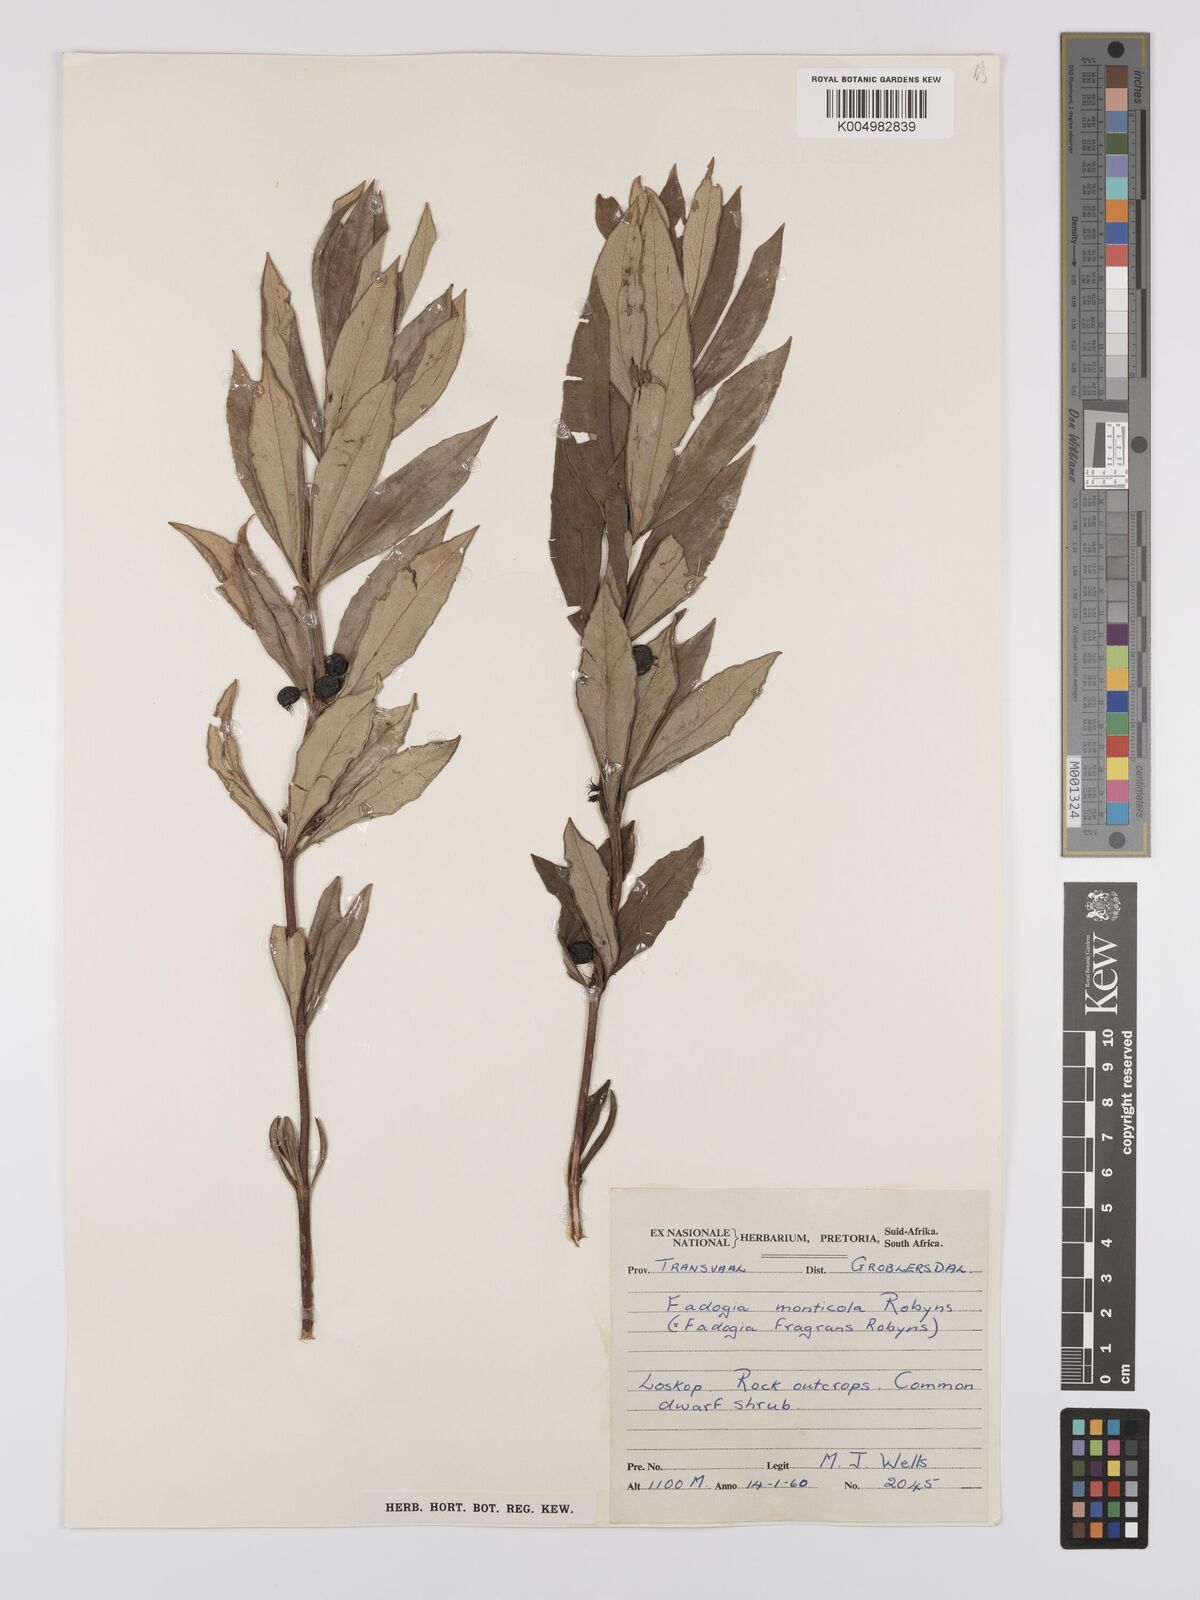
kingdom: Plantae
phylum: Tracheophyta
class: Magnoliopsida
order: Gentianales
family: Rubiaceae
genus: Fadogia
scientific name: Fadogia triphylla
